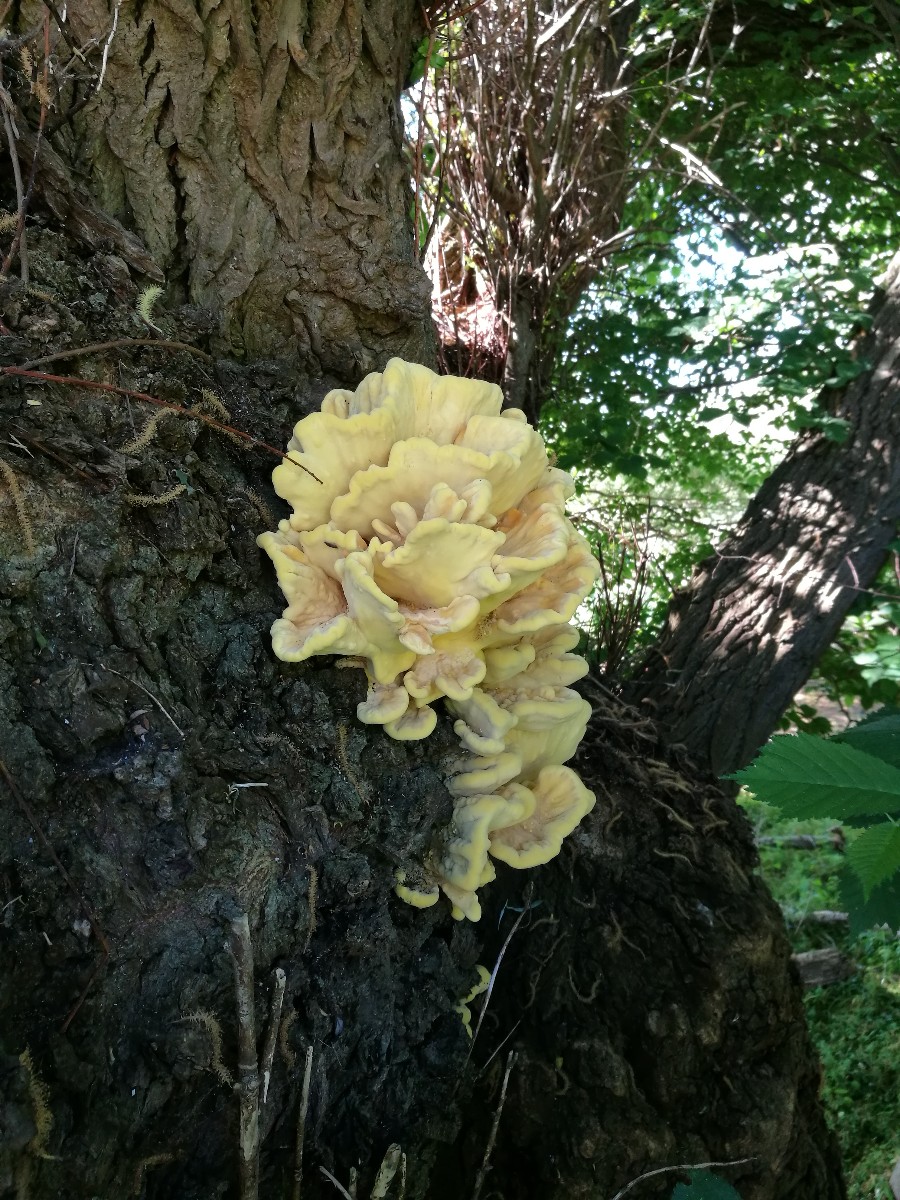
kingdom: Fungi
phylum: Basidiomycota
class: Agaricomycetes
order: Polyporales
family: Laetiporaceae
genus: Laetiporus
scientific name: Laetiporus sulphureus
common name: svovlporesvamp
